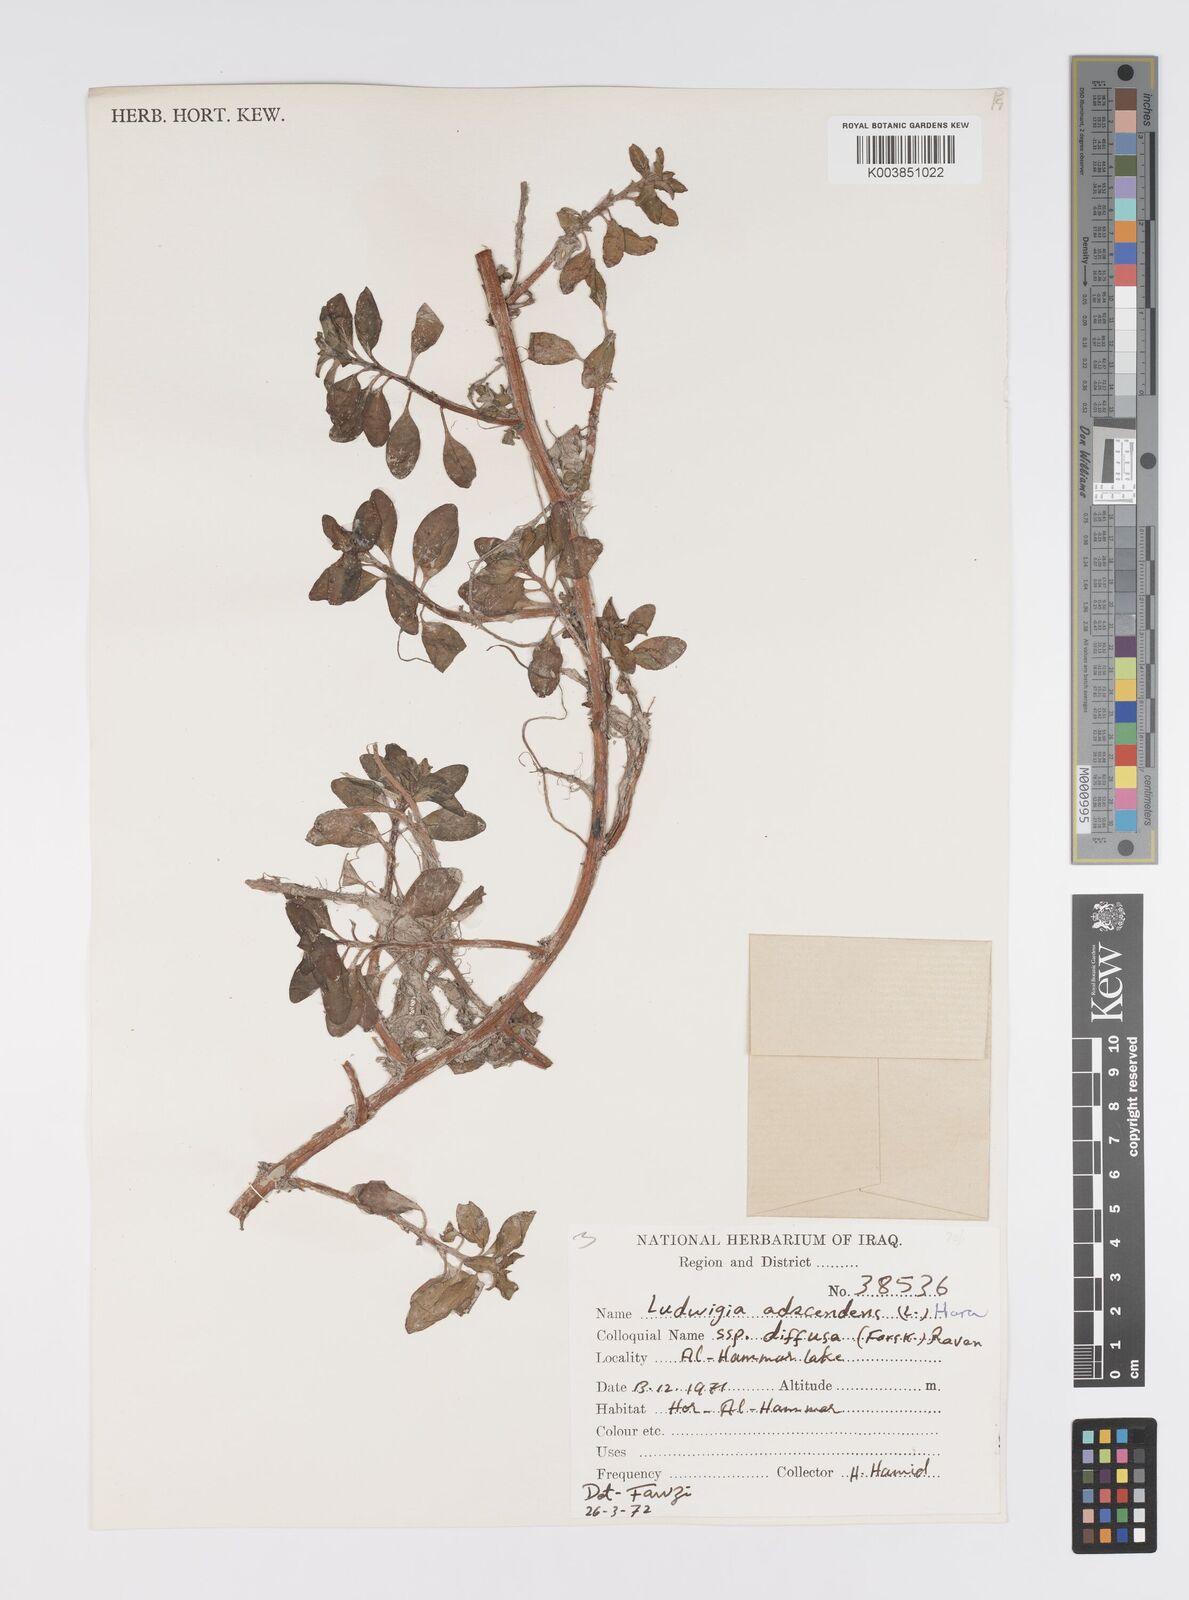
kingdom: Plantae
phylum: Tracheophyta
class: Magnoliopsida
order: Myrtales
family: Onagraceae
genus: Ludwigia
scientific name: Ludwigia adscendens
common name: Creeping water primrose
